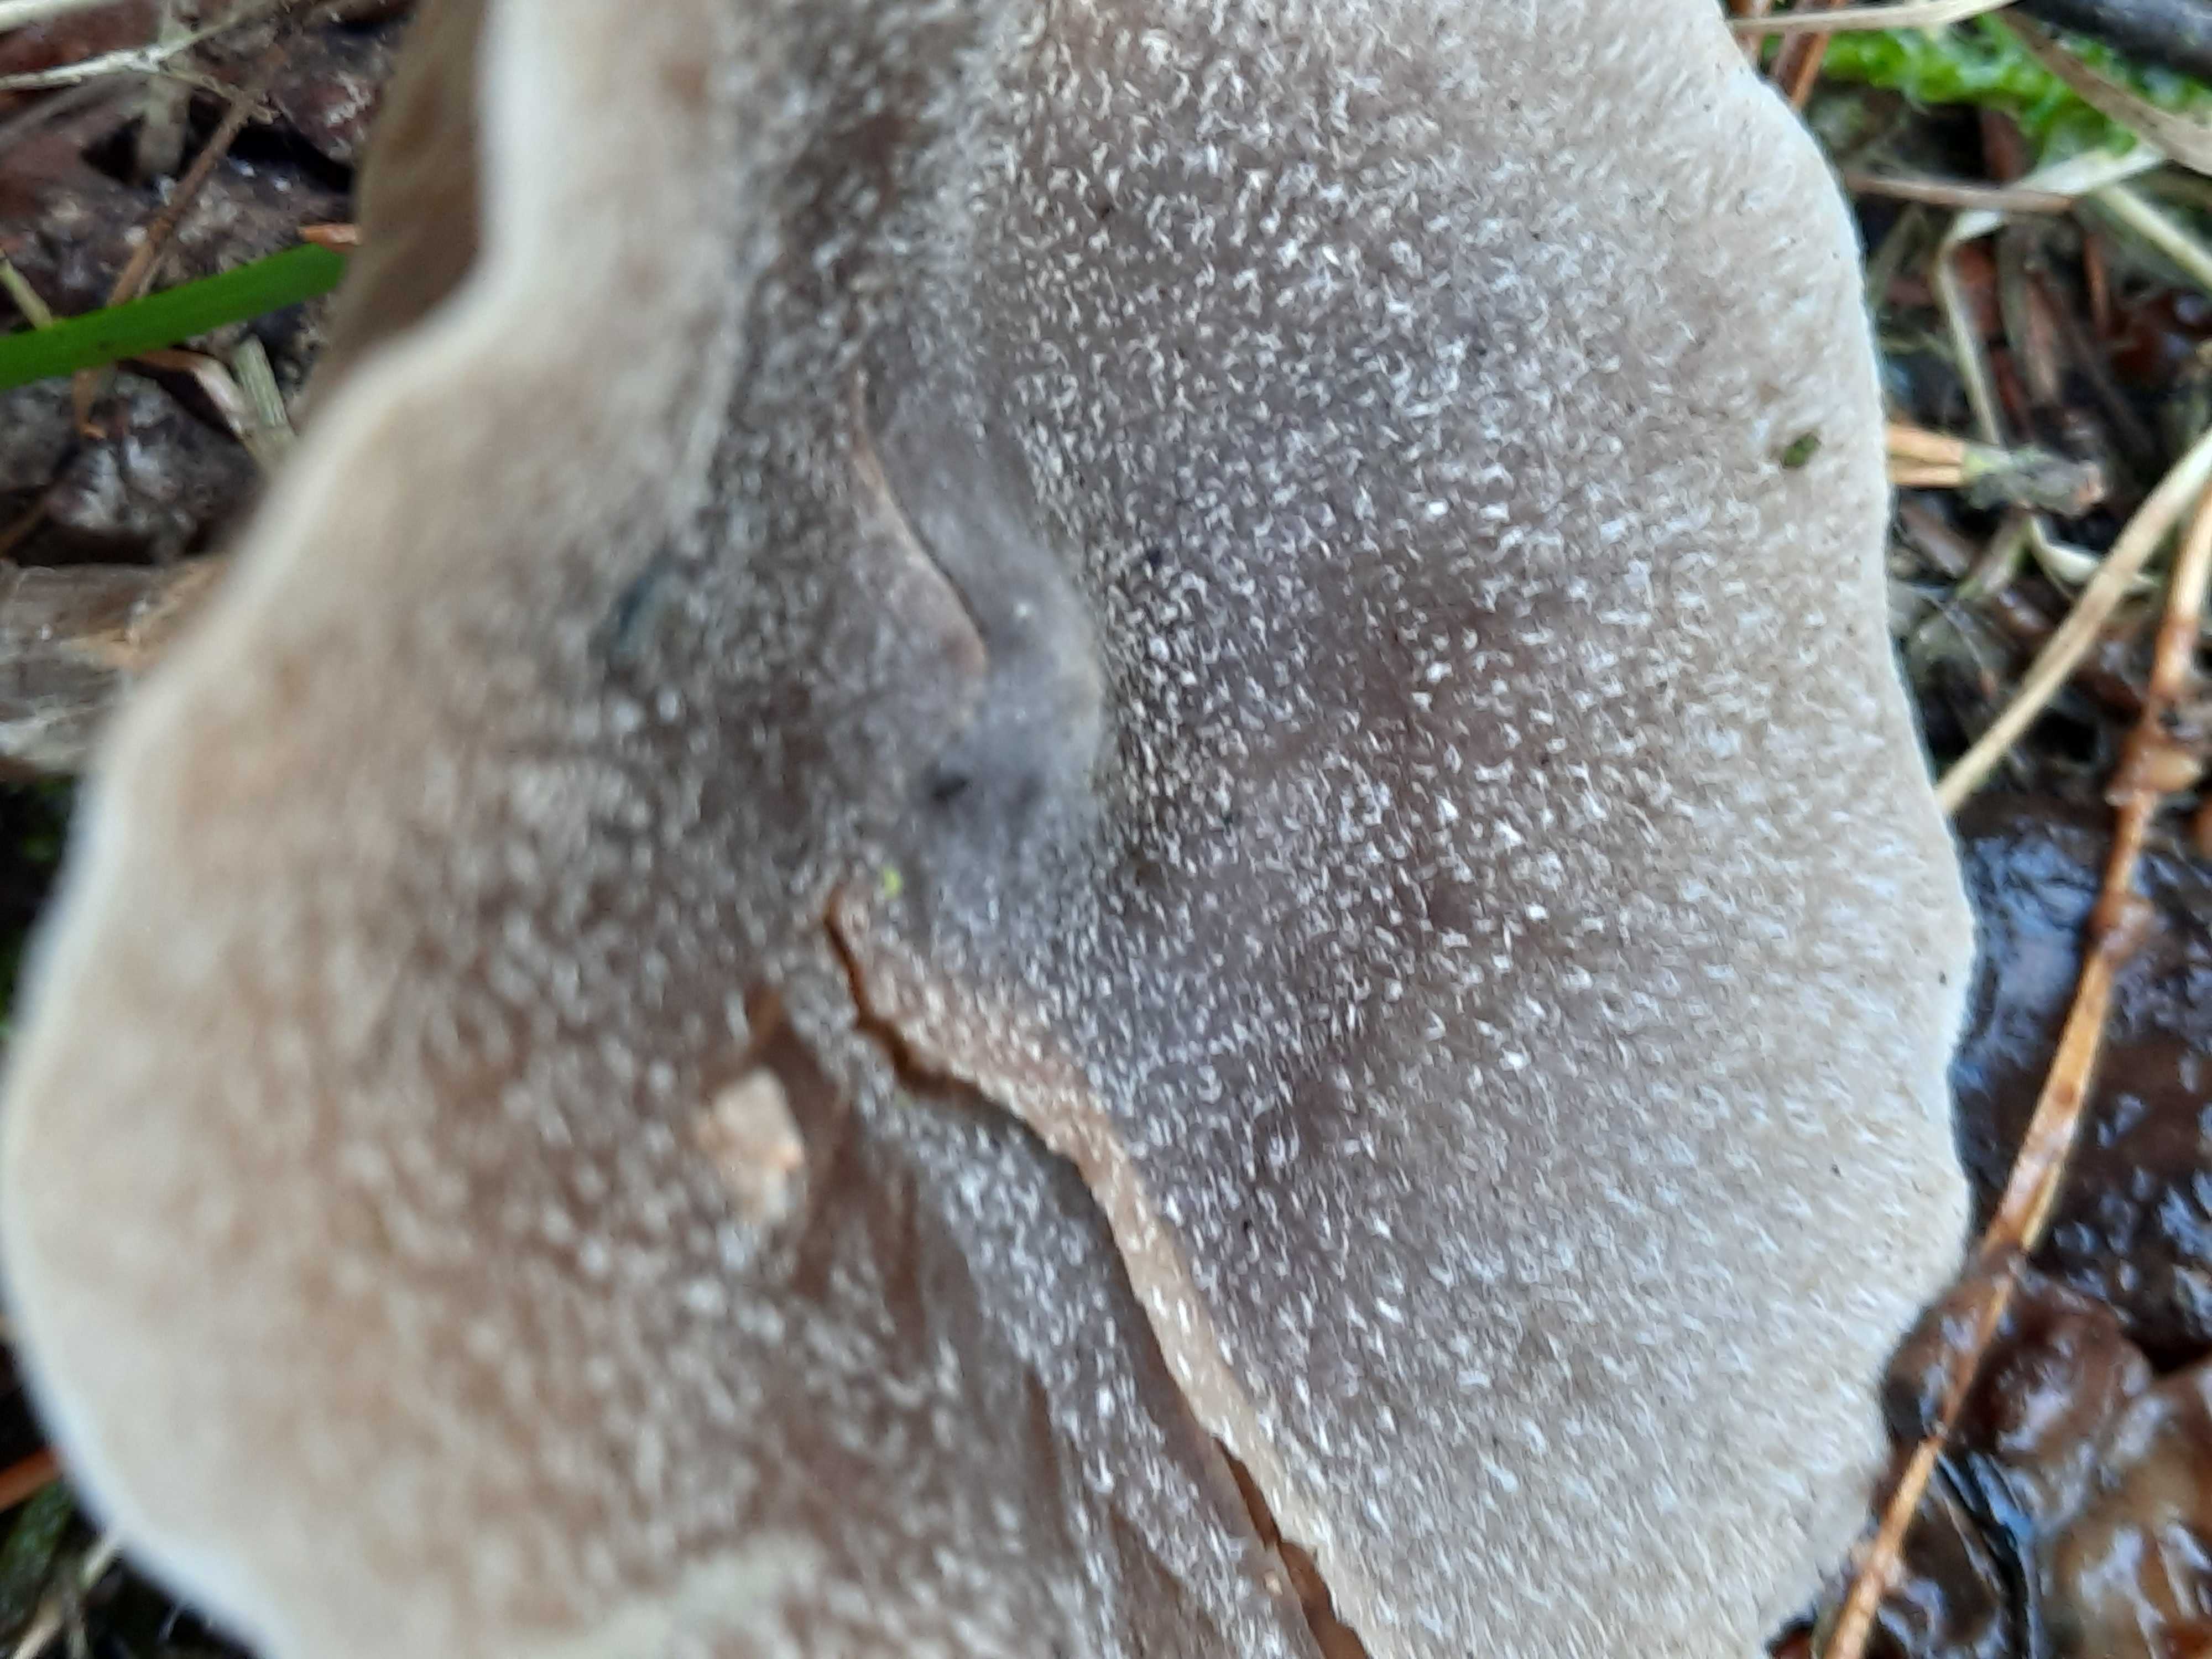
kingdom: Fungi
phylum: Basidiomycota
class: Agaricomycetes
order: Agaricales
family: Cortinariaceae
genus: Cortinarius
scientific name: Cortinarius hemitrichus
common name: hvidfnugget slørhat
